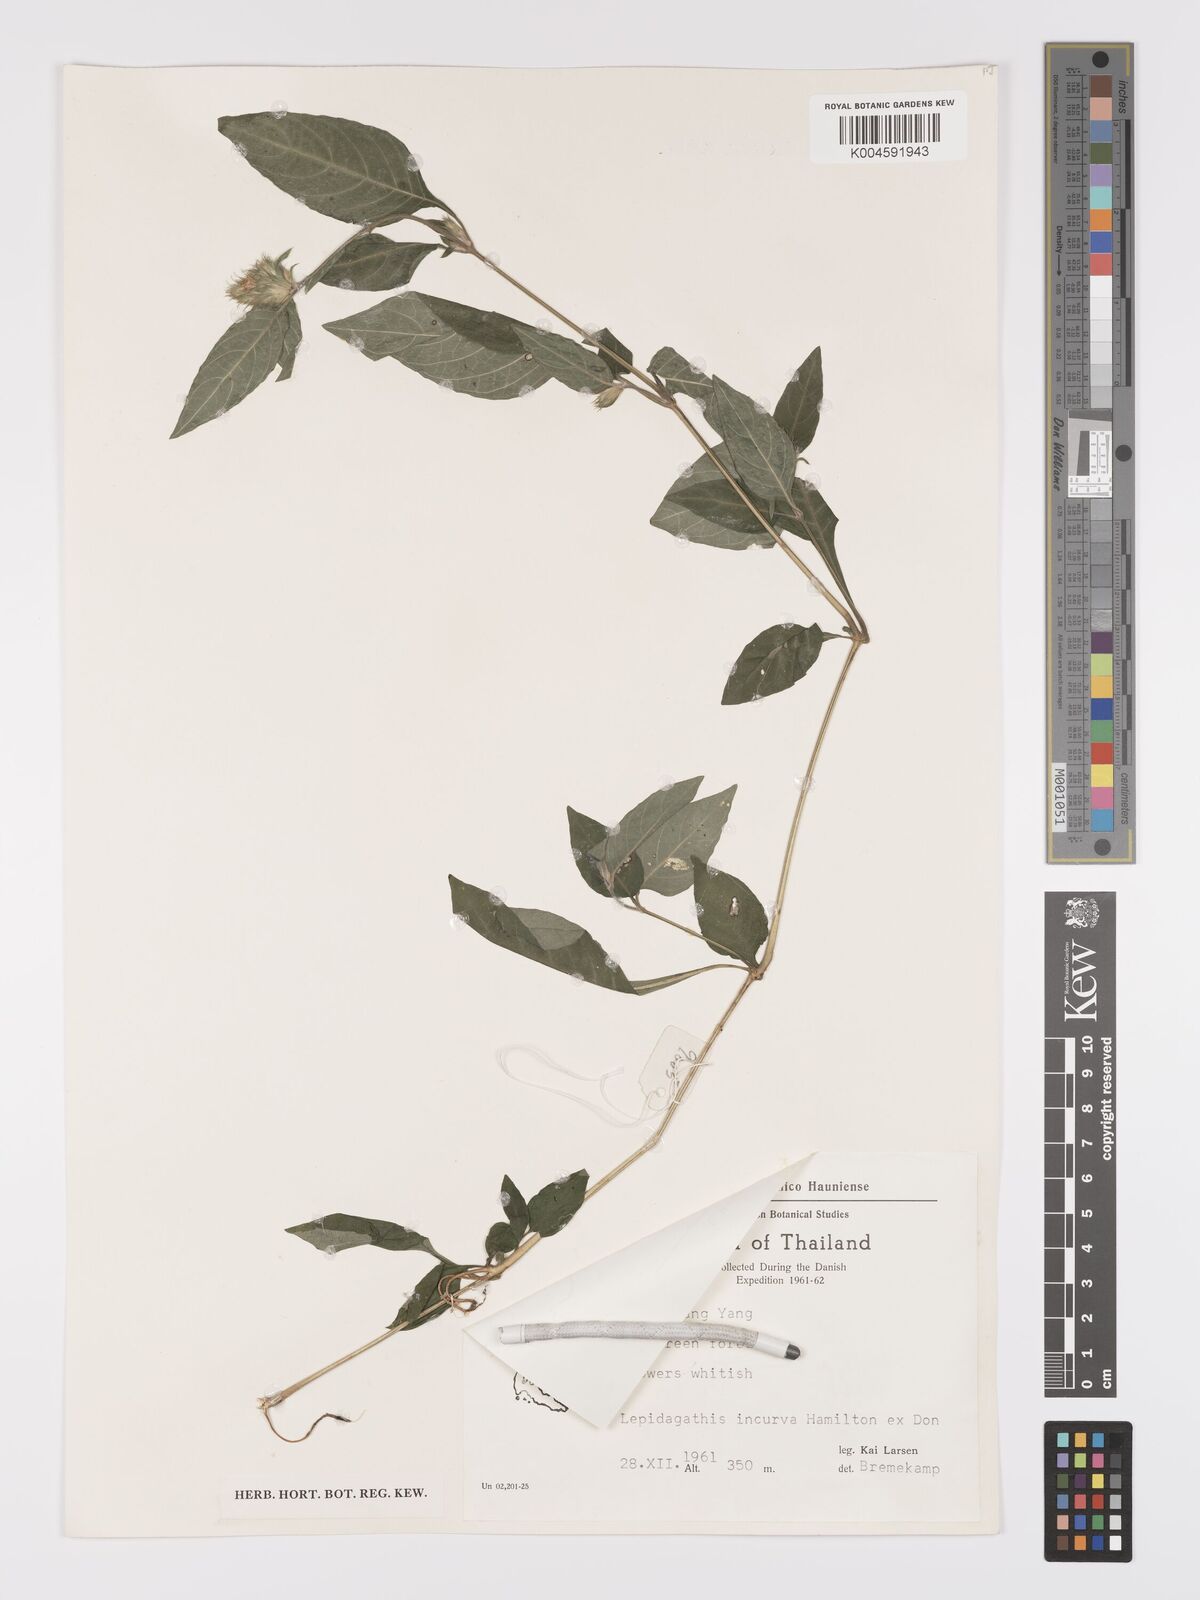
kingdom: Plantae
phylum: Tracheophyta
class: Magnoliopsida
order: Lamiales
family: Acanthaceae
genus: Lepidagathis
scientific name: Lepidagathis incurva
